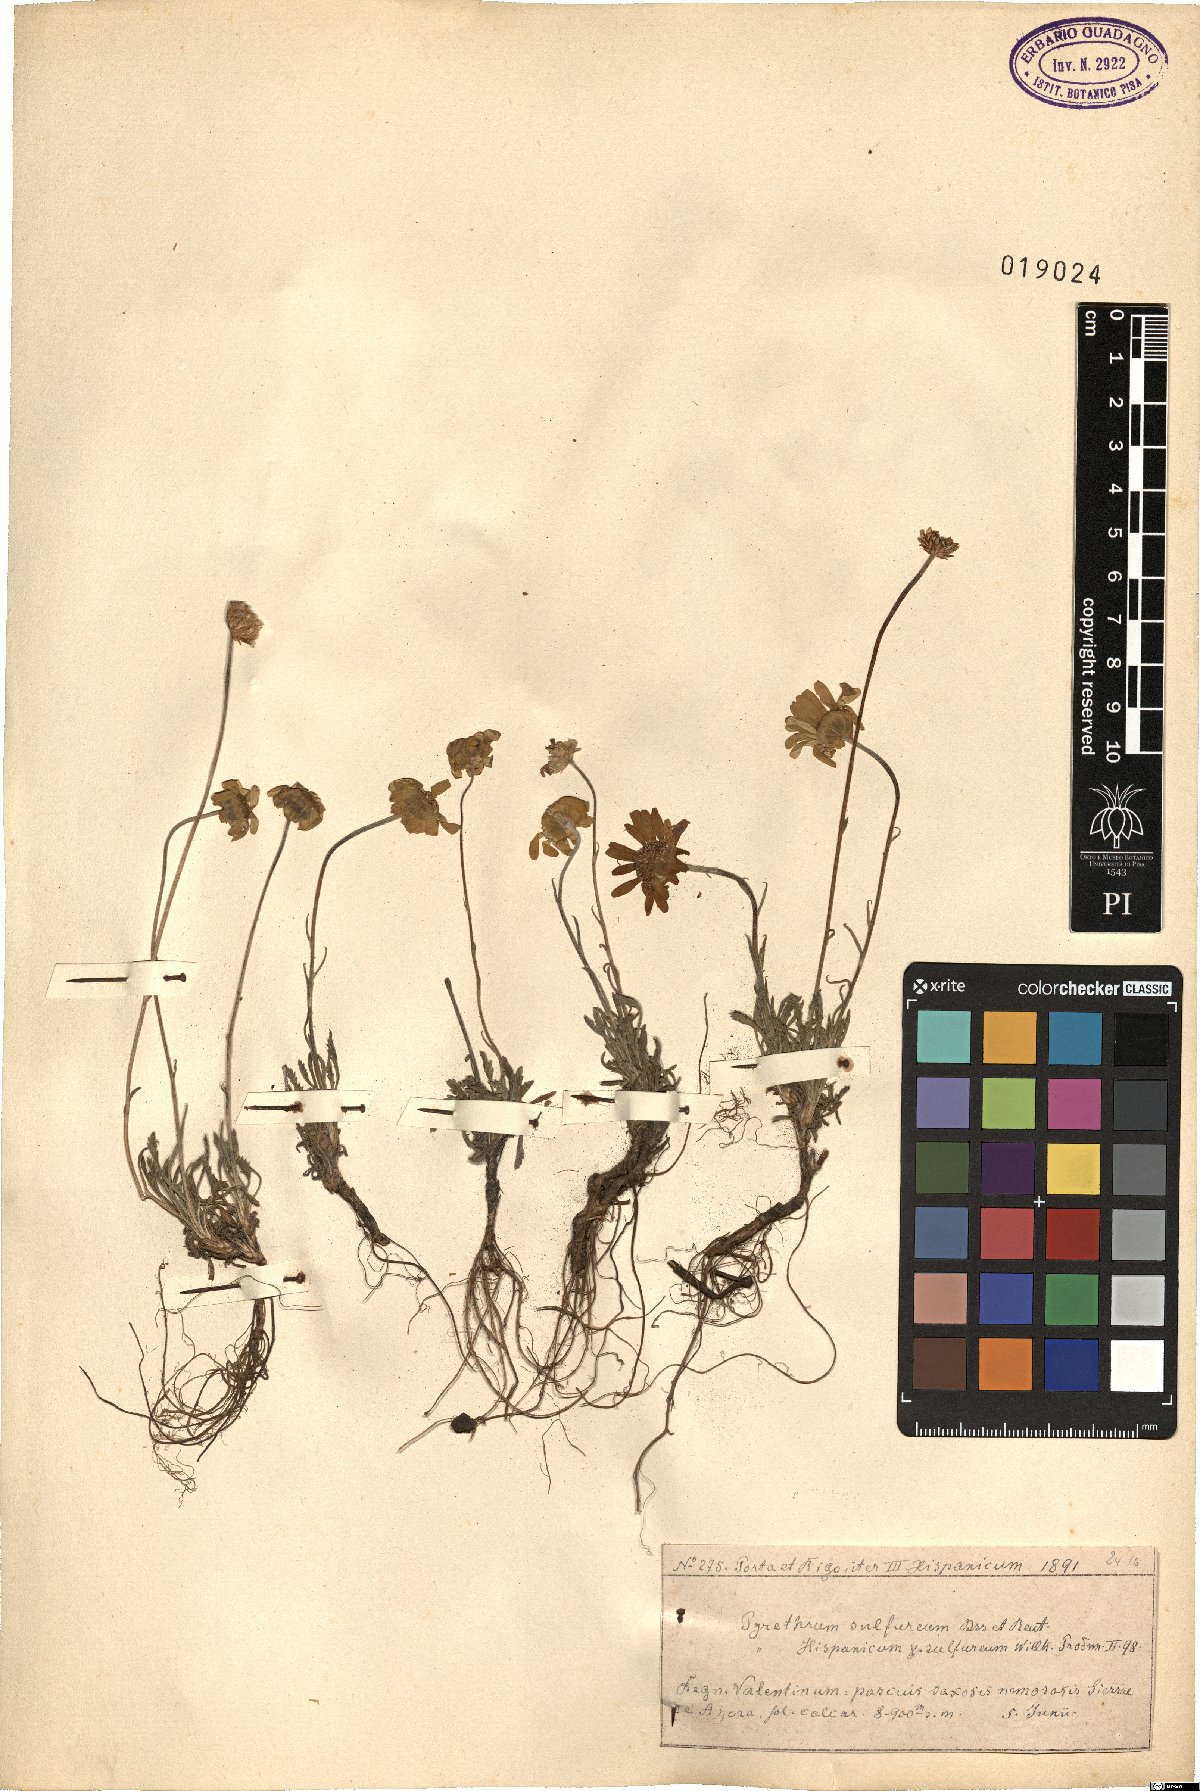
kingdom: Plantae
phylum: Tracheophyta
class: Magnoliopsida
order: Asterales
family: Asteraceae
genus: Leucanthemopsis
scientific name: Leucanthemopsis pallida
